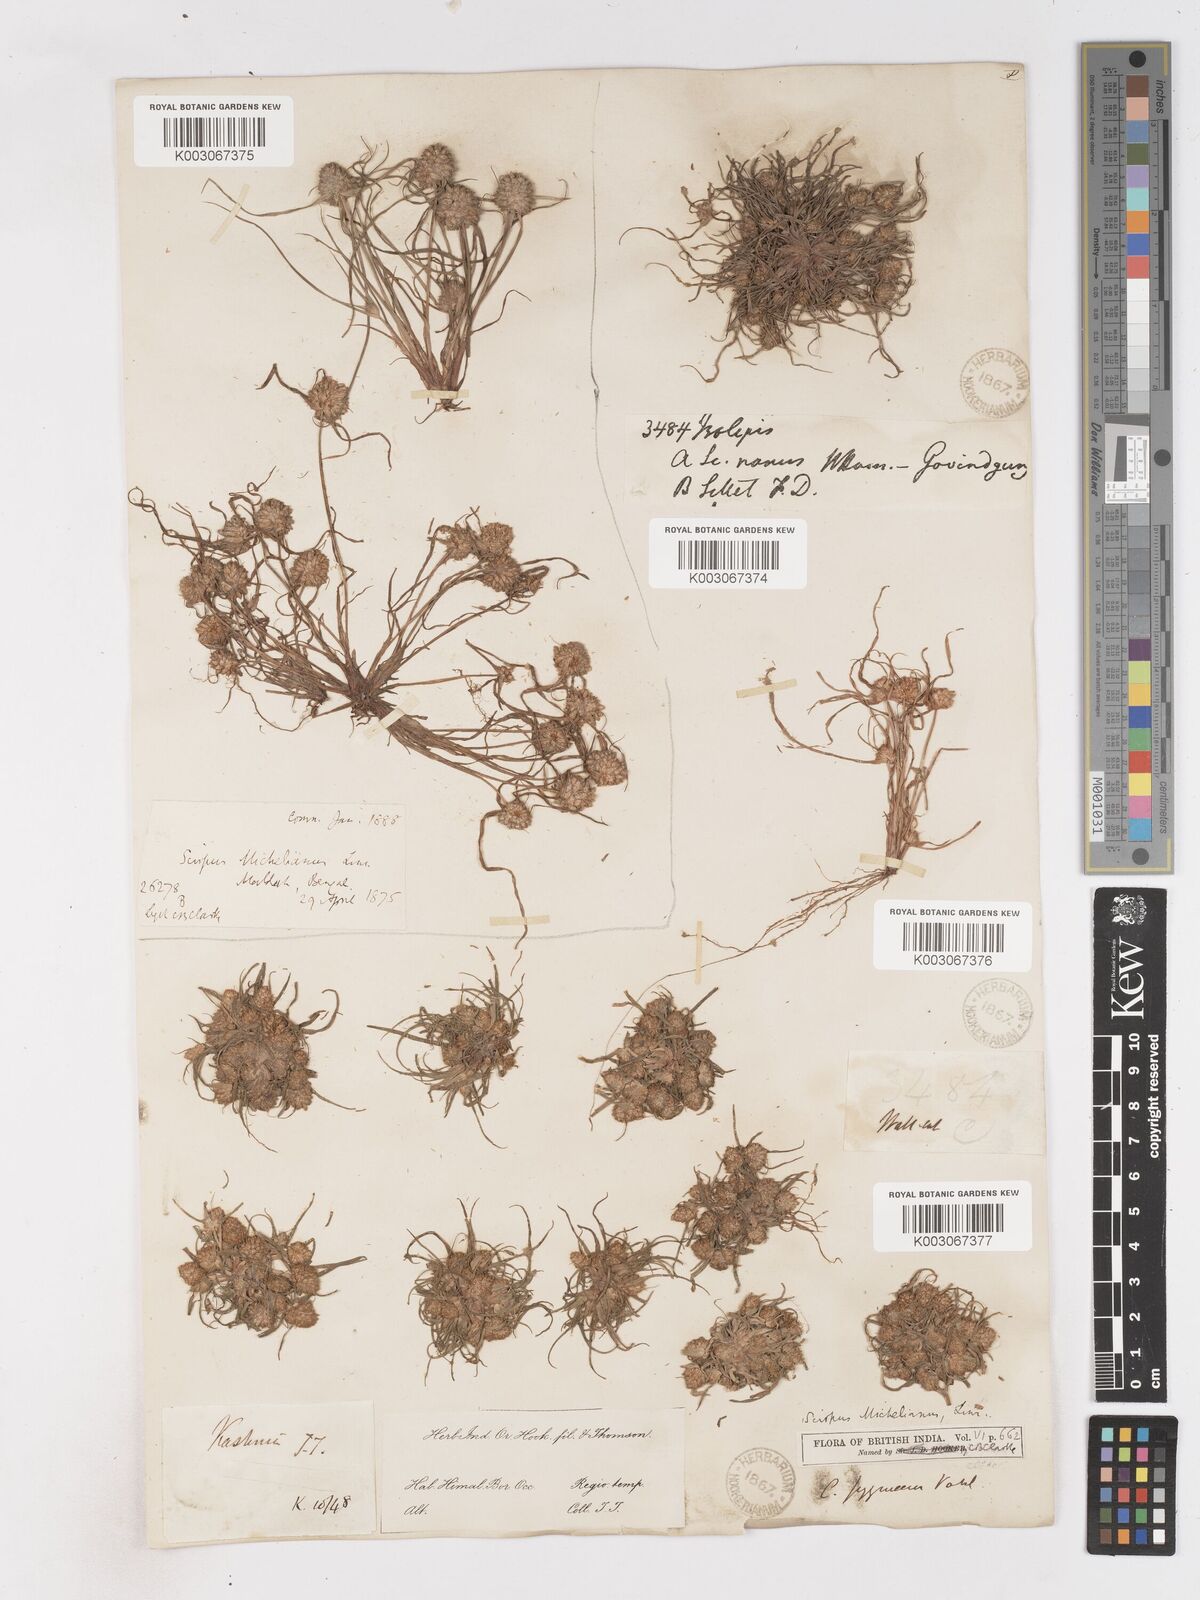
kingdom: Plantae
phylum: Tracheophyta
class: Liliopsida
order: Poales
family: Cyperaceae
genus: Cyperus
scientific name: Cyperus michelianus
